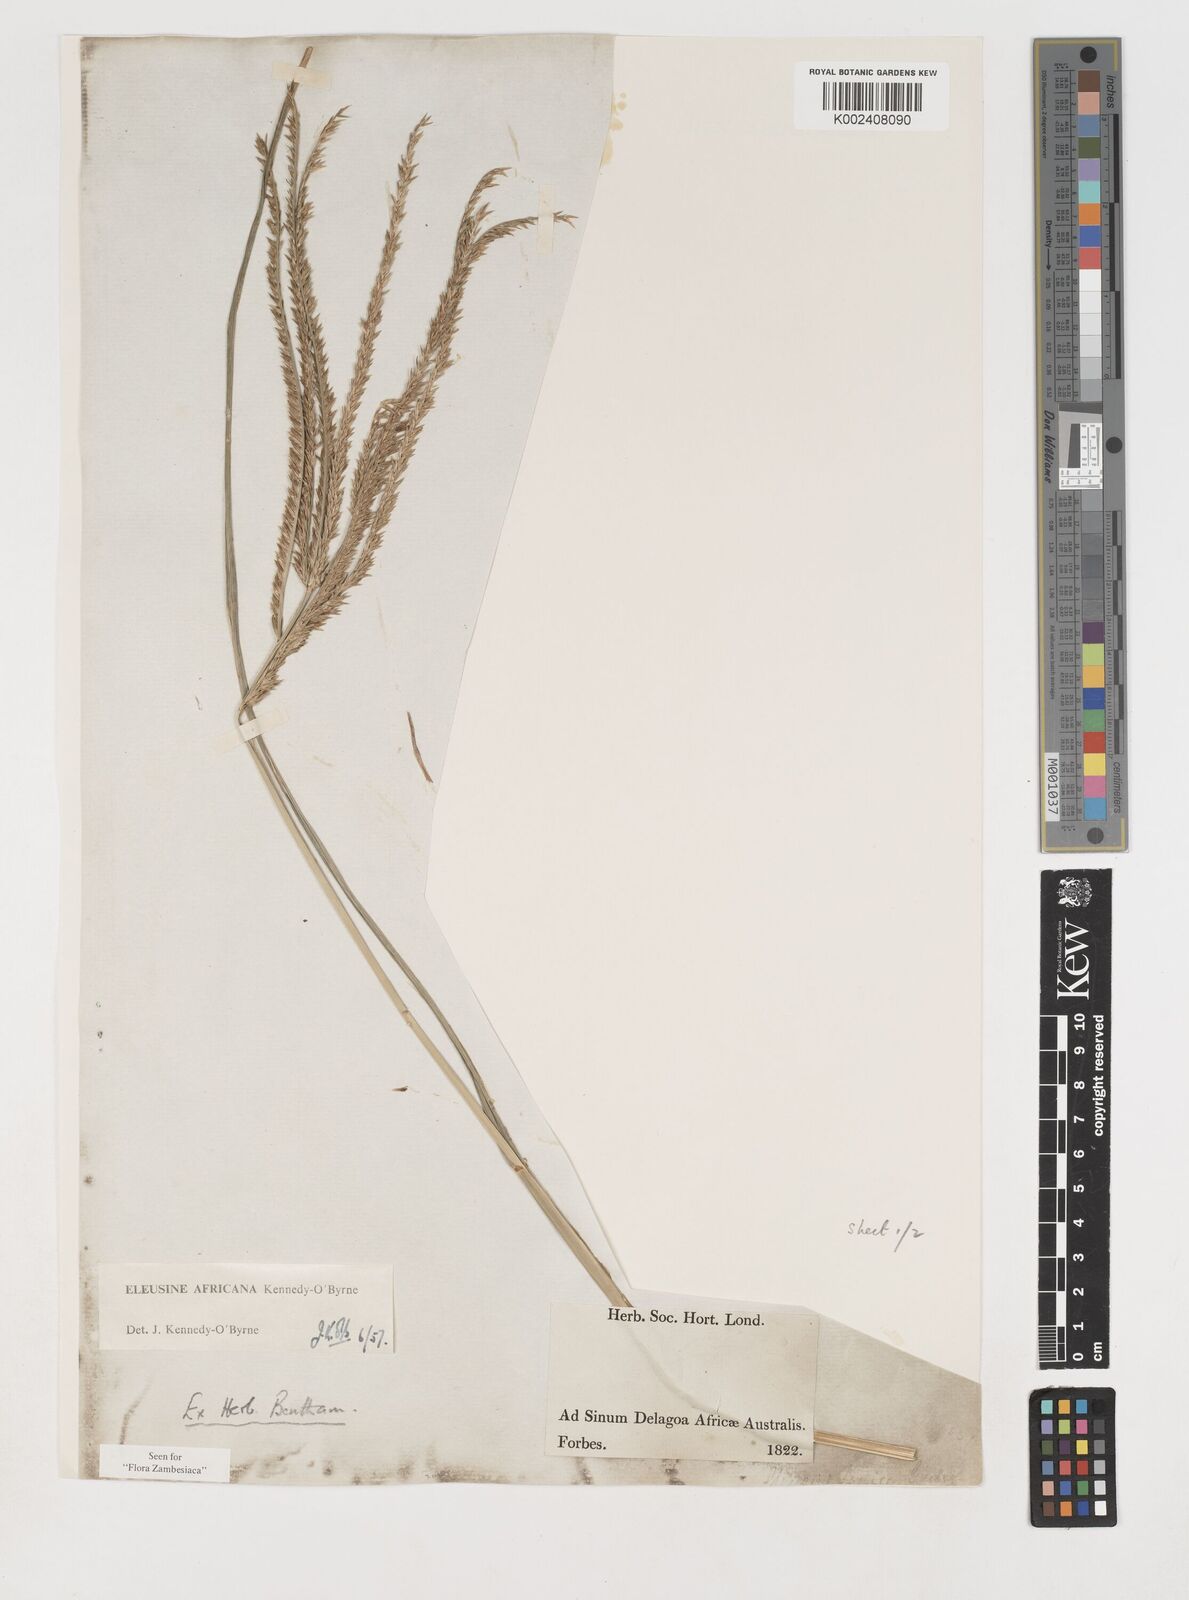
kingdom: Plantae
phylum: Tracheophyta
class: Liliopsida
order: Poales
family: Poaceae
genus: Eleusine
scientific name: Eleusine africana
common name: Wild african finger millet
